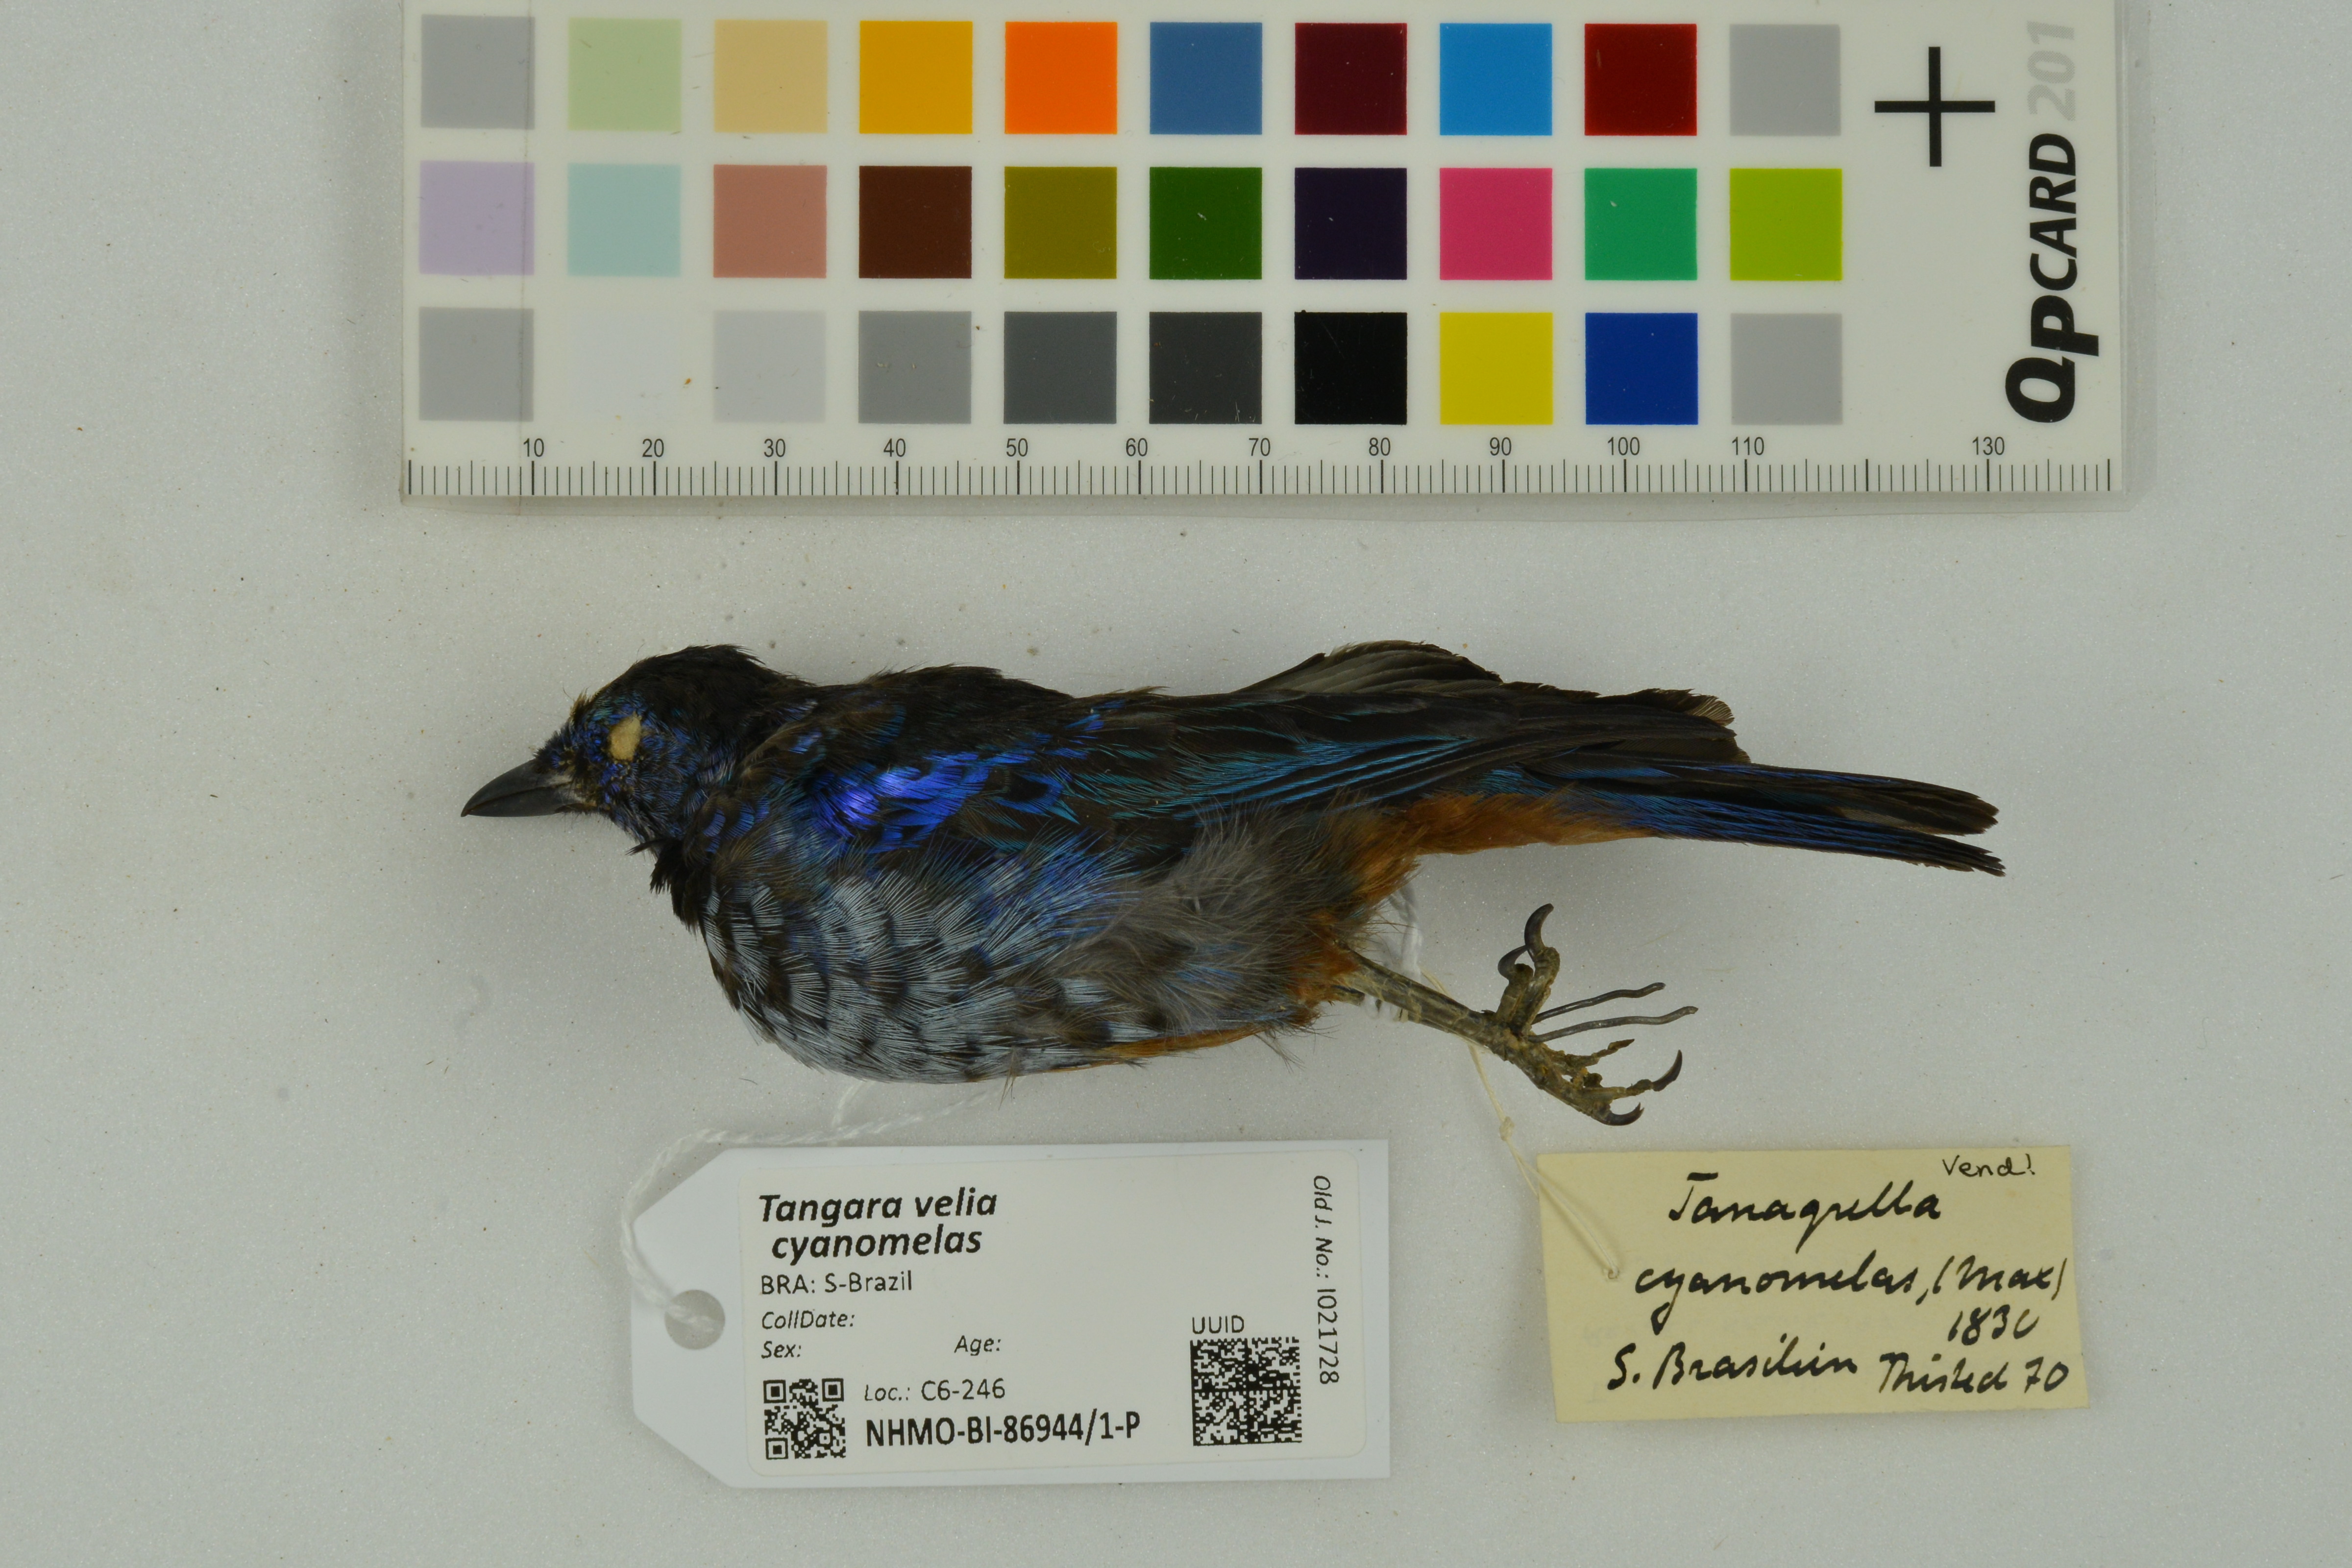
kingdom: Animalia
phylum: Chordata
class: Aves
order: Passeriformes
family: Thraupidae
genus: Tangara
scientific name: Tangara velia
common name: Opal-rumped tanager
